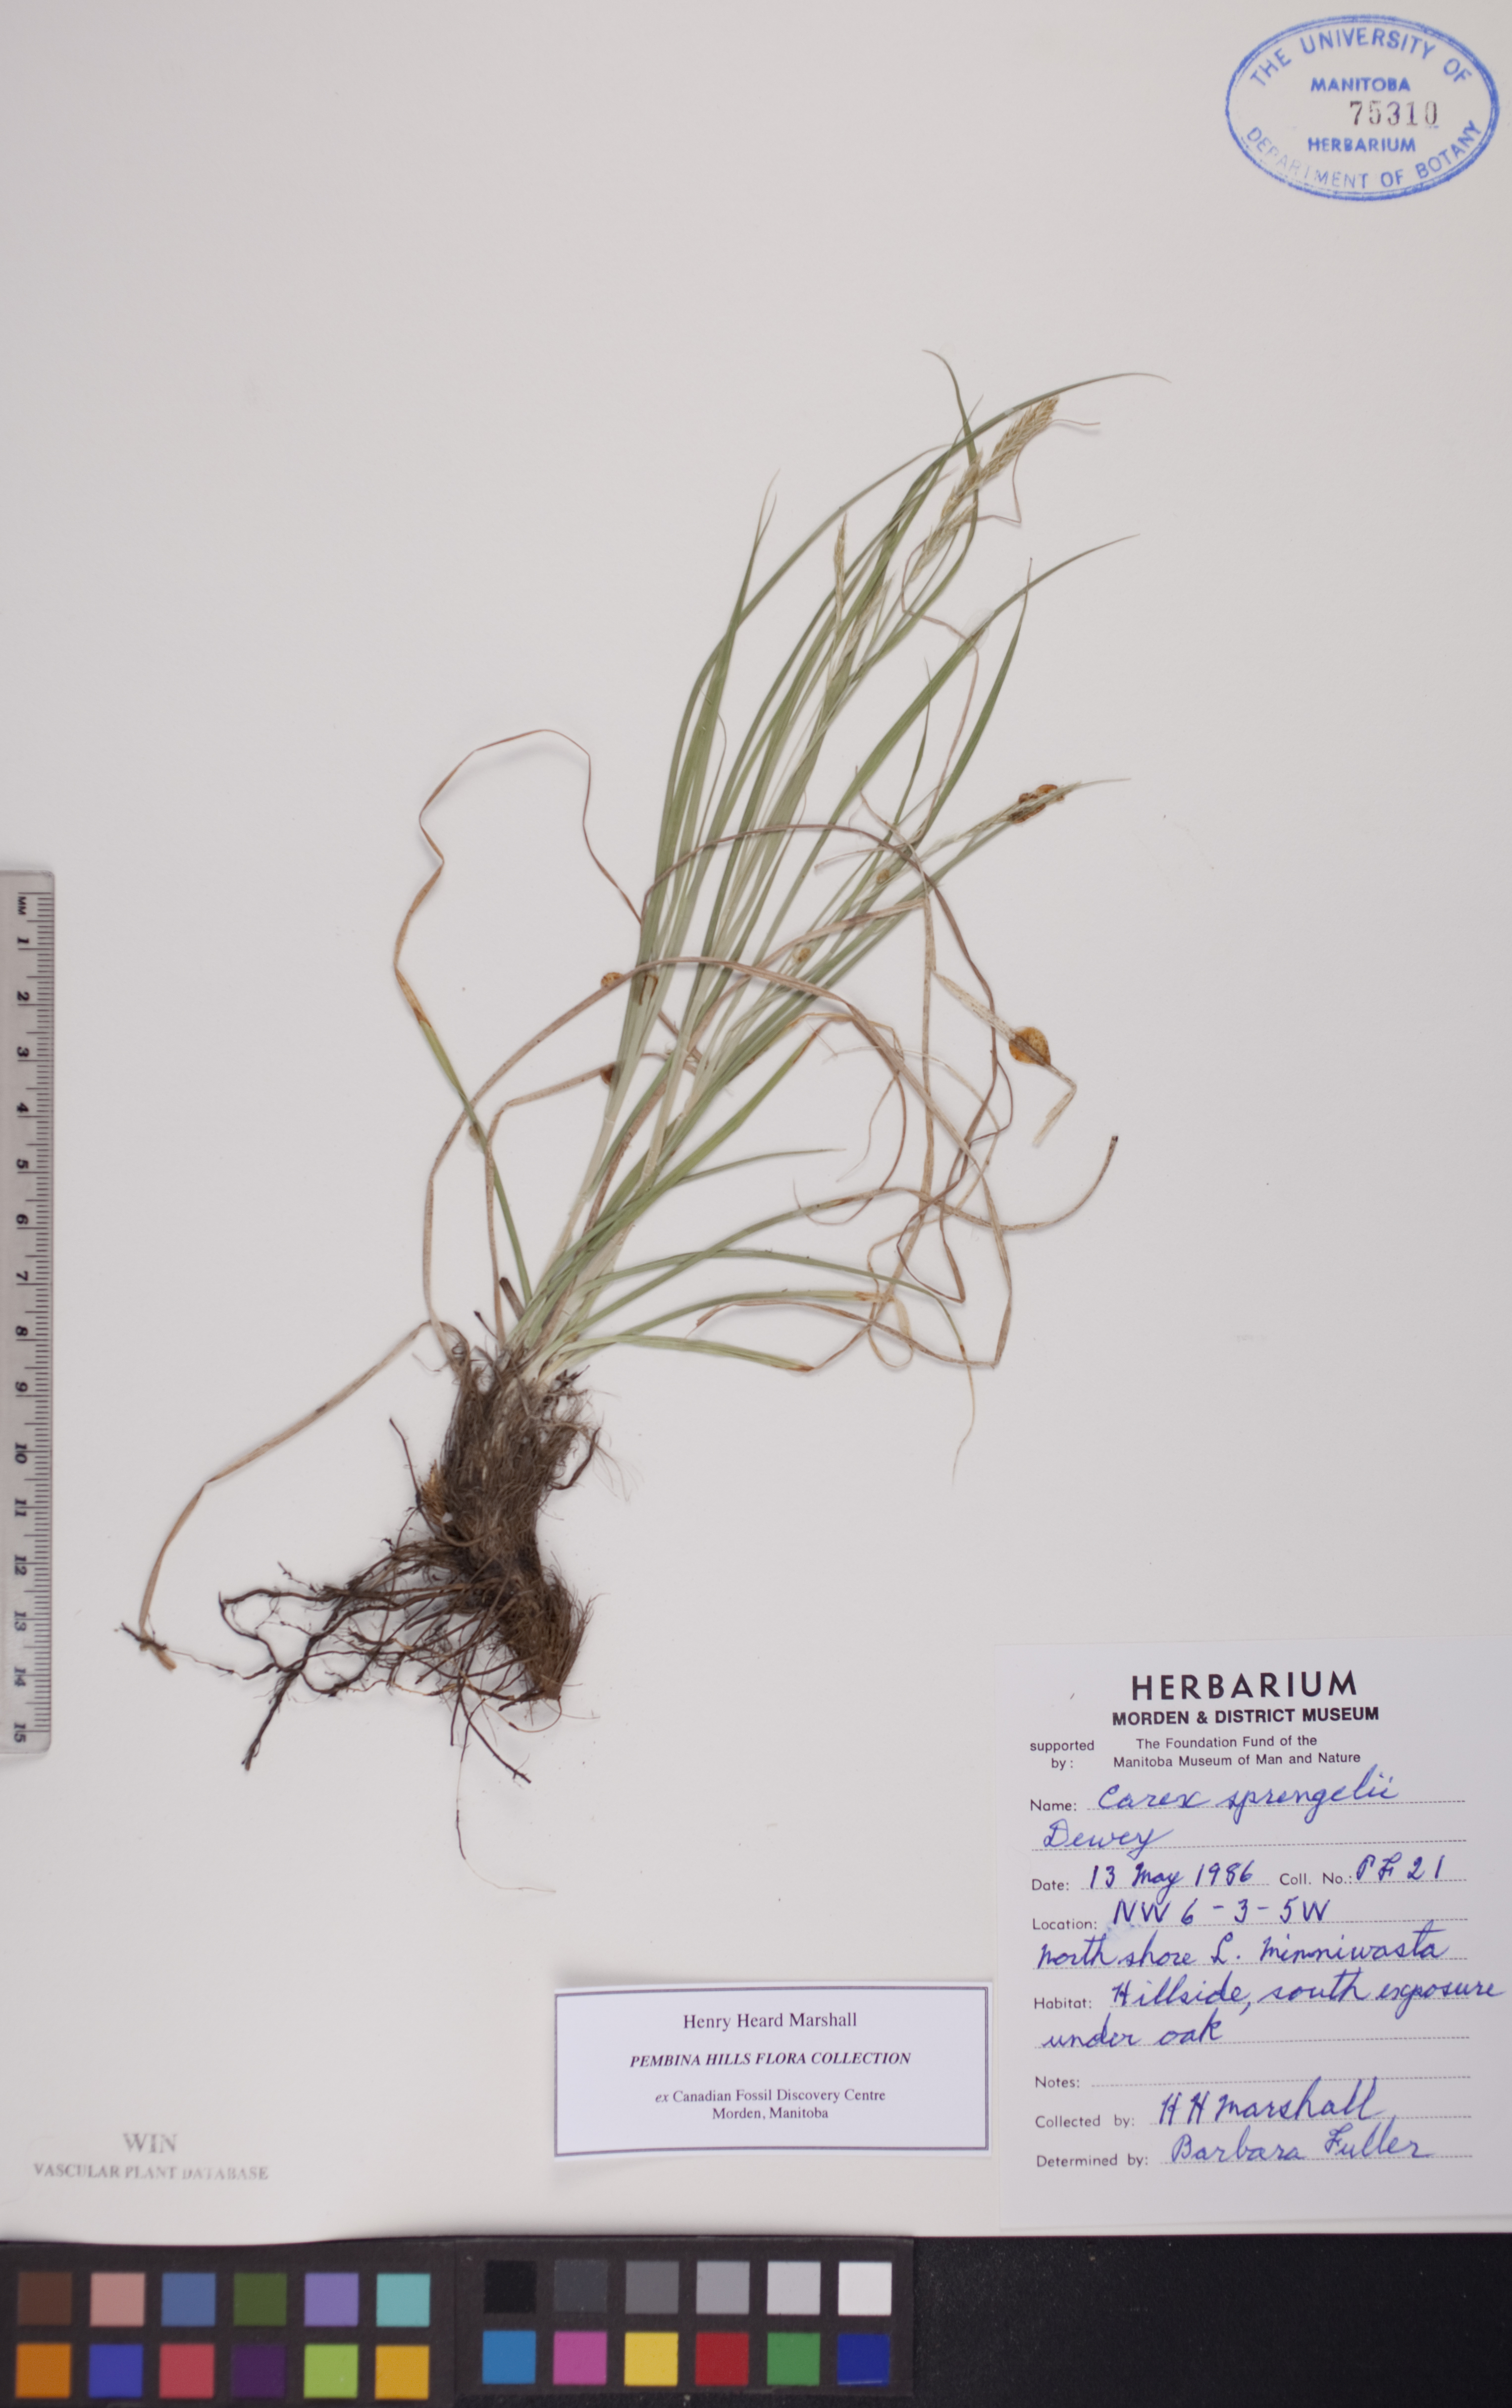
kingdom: Plantae
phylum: Tracheophyta
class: Liliopsida
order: Poales
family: Cyperaceae
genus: Carex
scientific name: Carex sprengelii
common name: Long-beaked sedge
